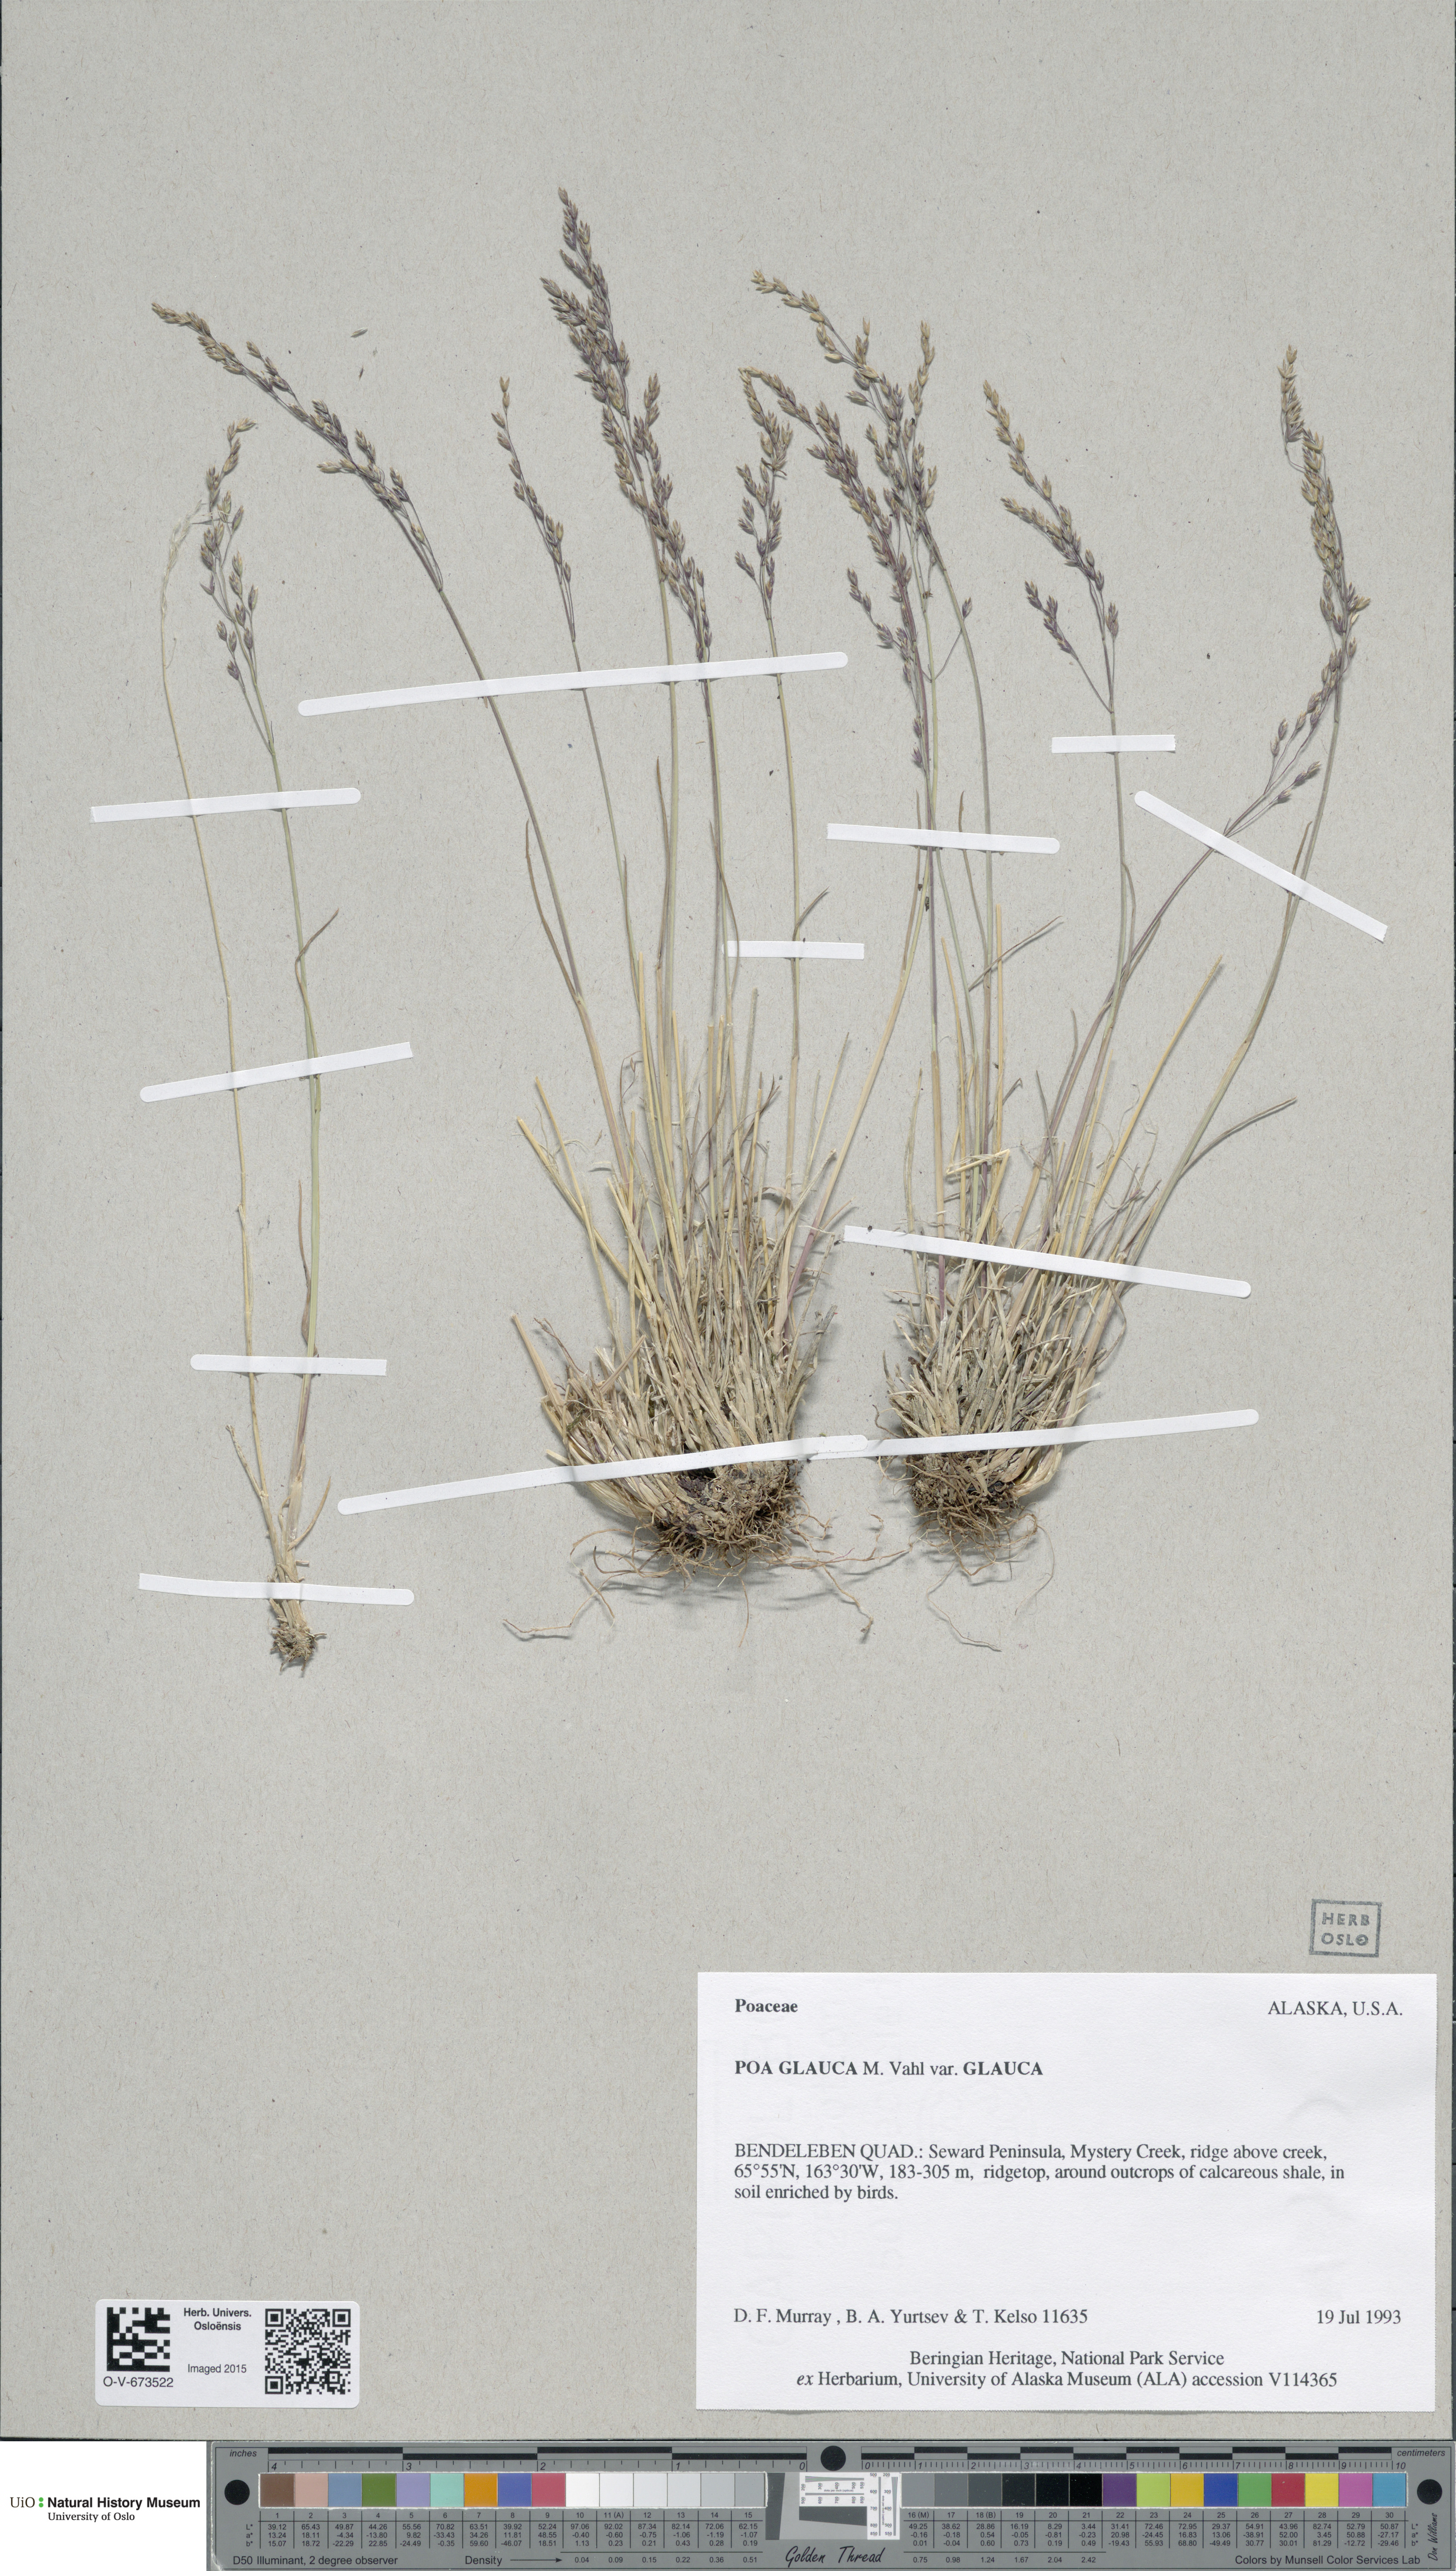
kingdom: Plantae
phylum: Tracheophyta
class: Liliopsida
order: Poales
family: Poaceae
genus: Poa
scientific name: Poa glauca
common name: Glaucous bluegrass
